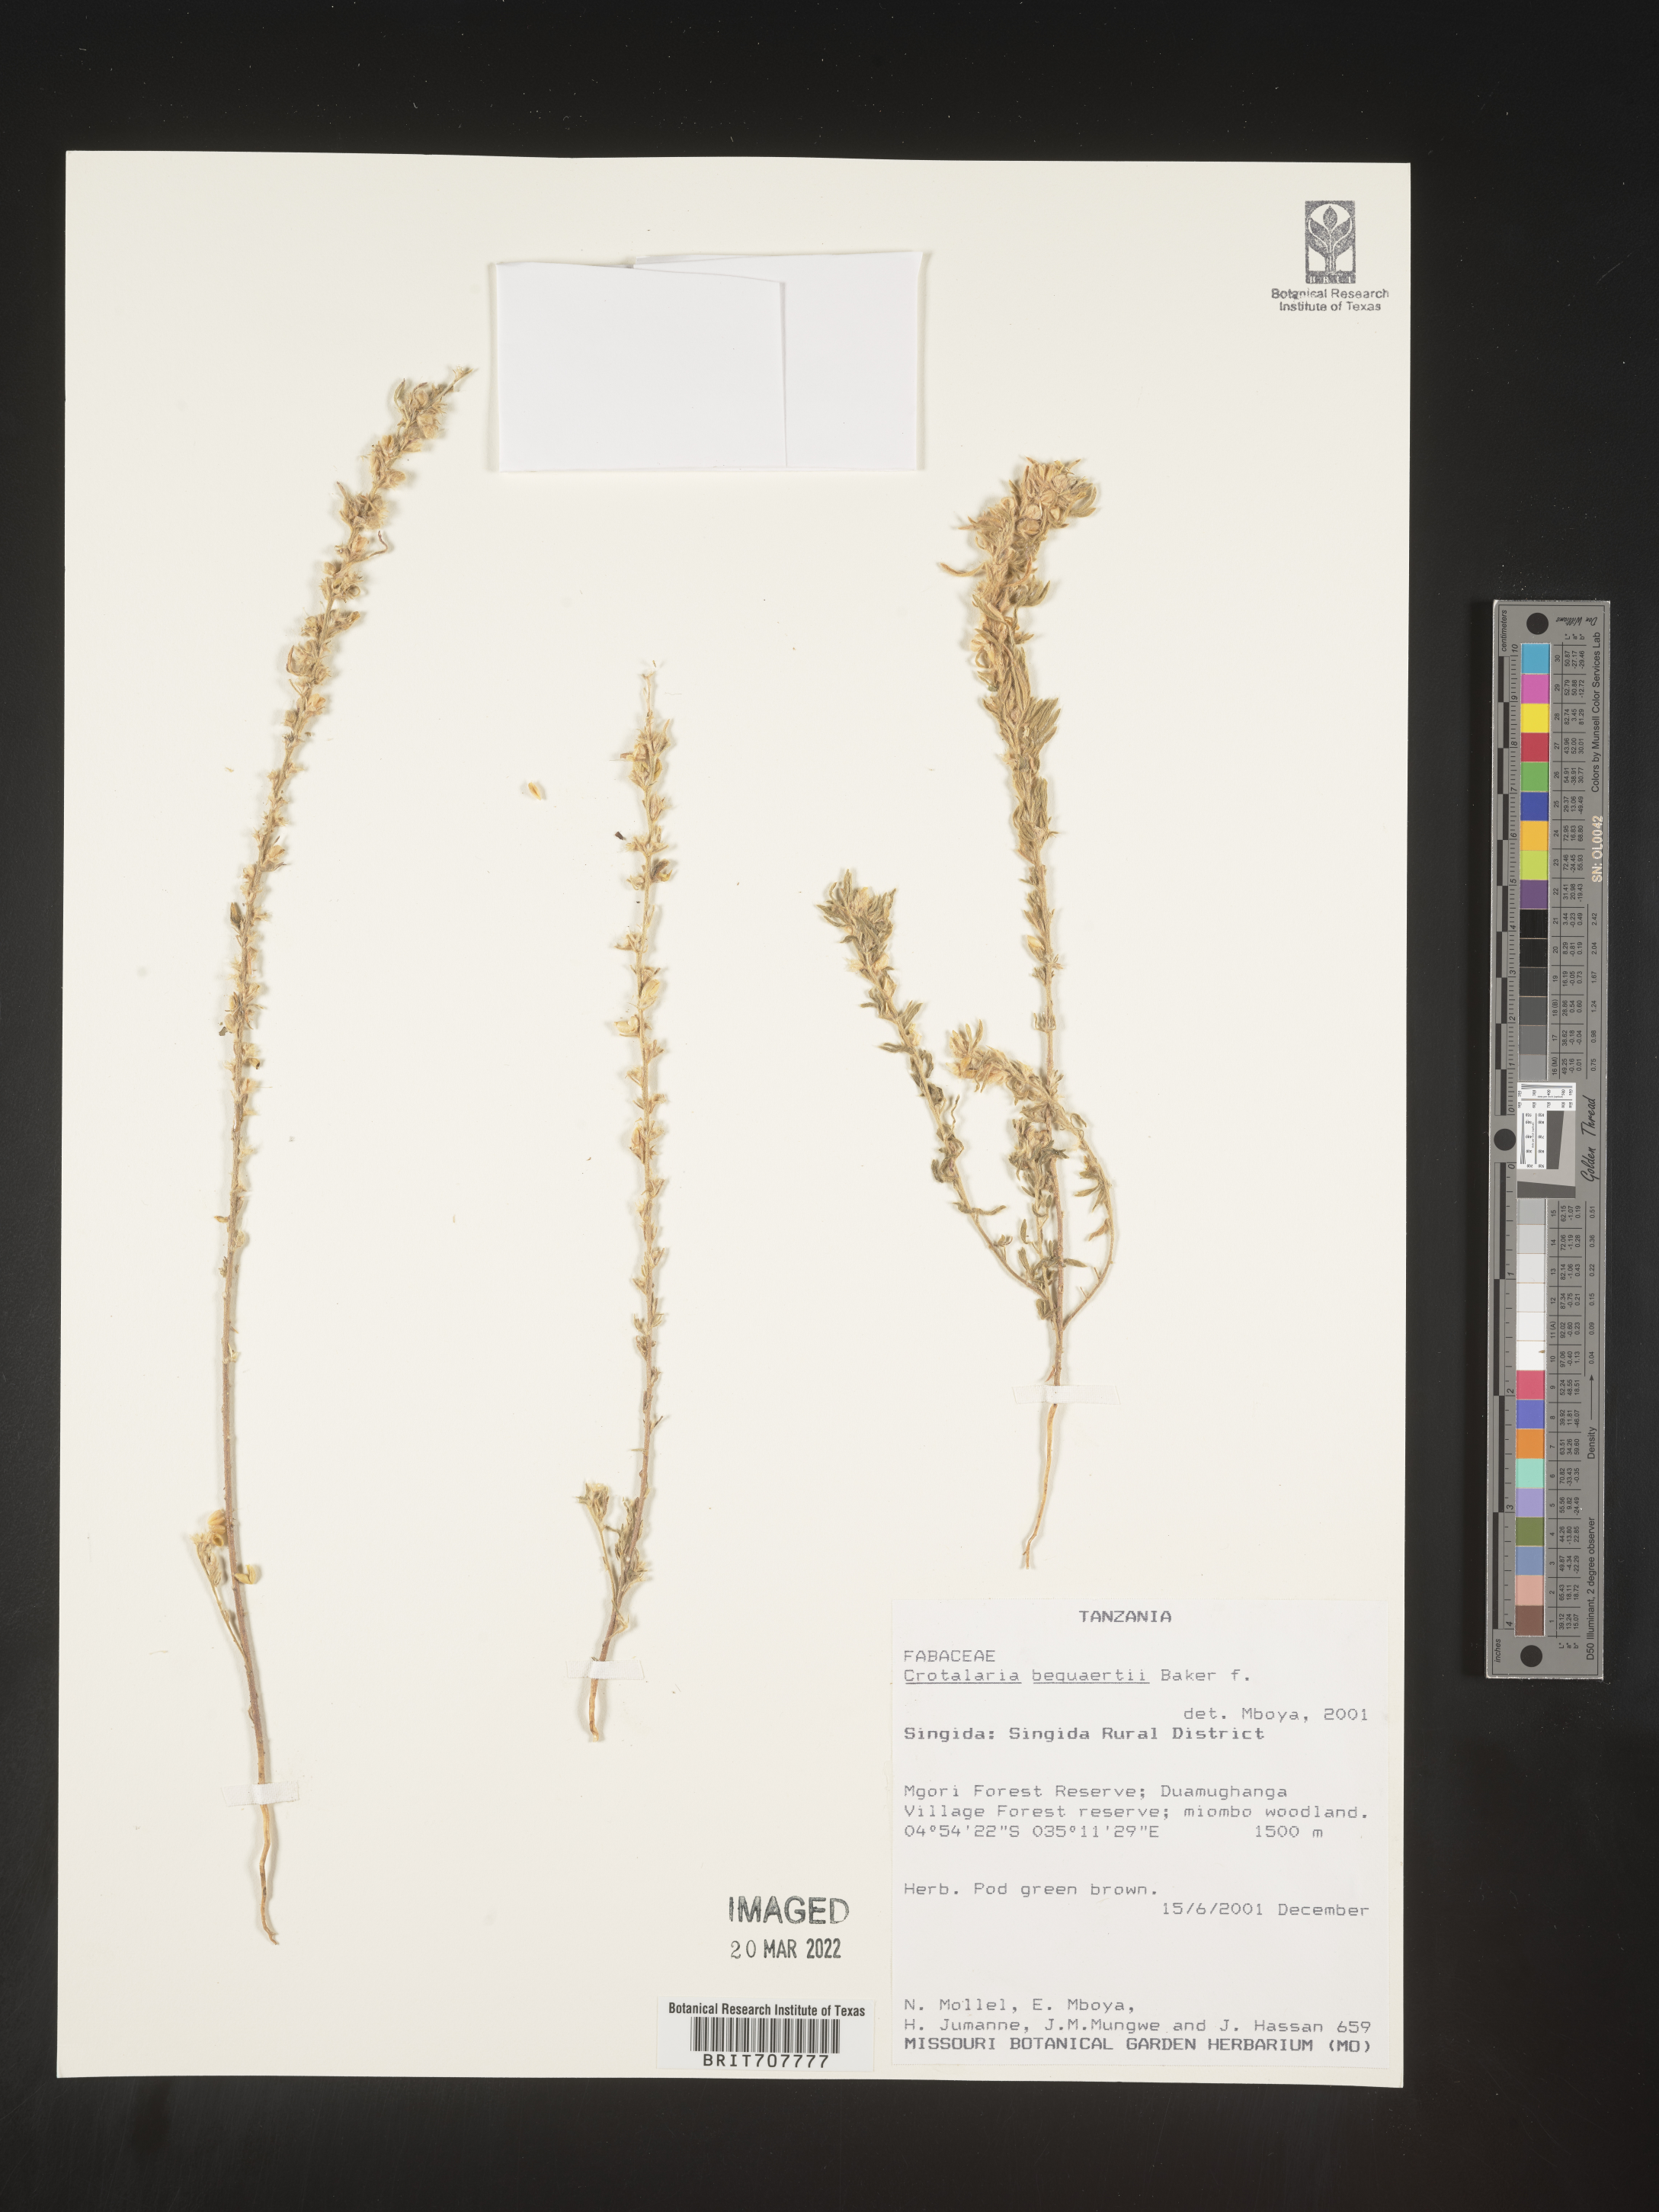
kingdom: Plantae
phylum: Tracheophyta
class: Magnoliopsida
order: Fabales
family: Fabaceae
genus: Crotalaria
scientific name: Crotalaria
